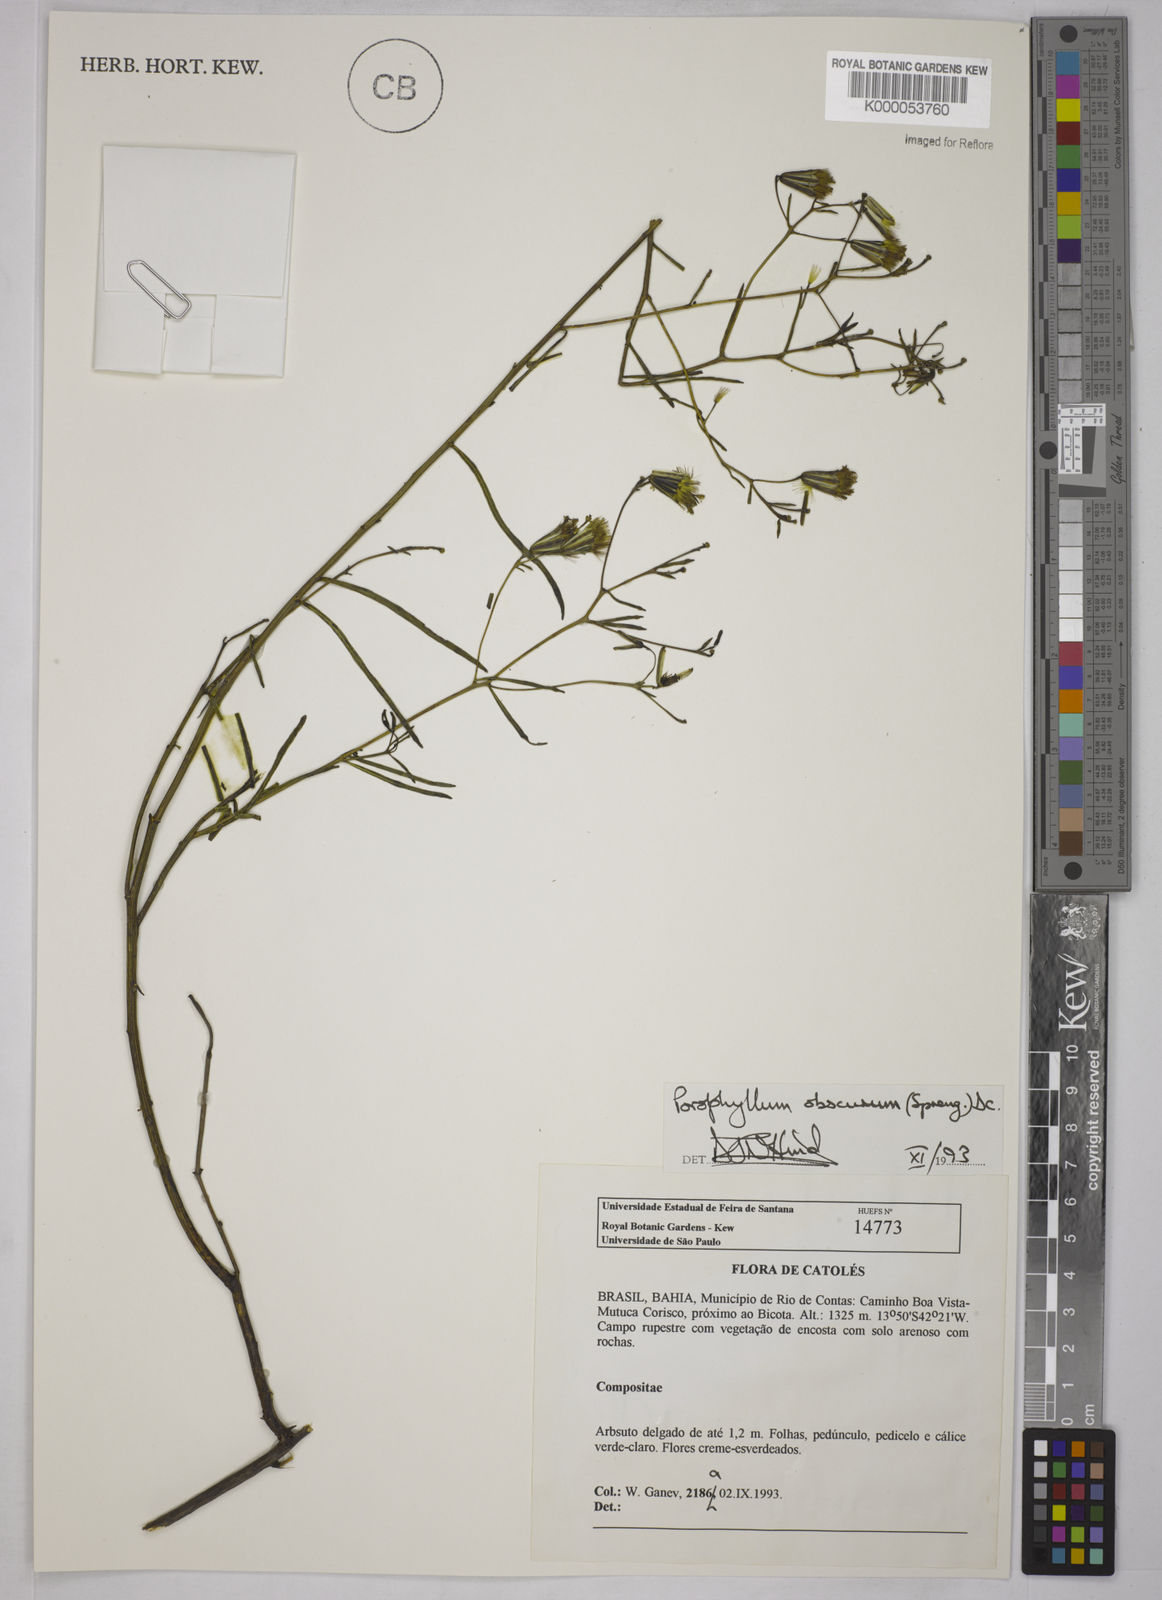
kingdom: Plantae
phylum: Tracheophyta
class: Magnoliopsida
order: Asterales
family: Asteraceae
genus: Porophyllum
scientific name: Porophyllum obscurum
